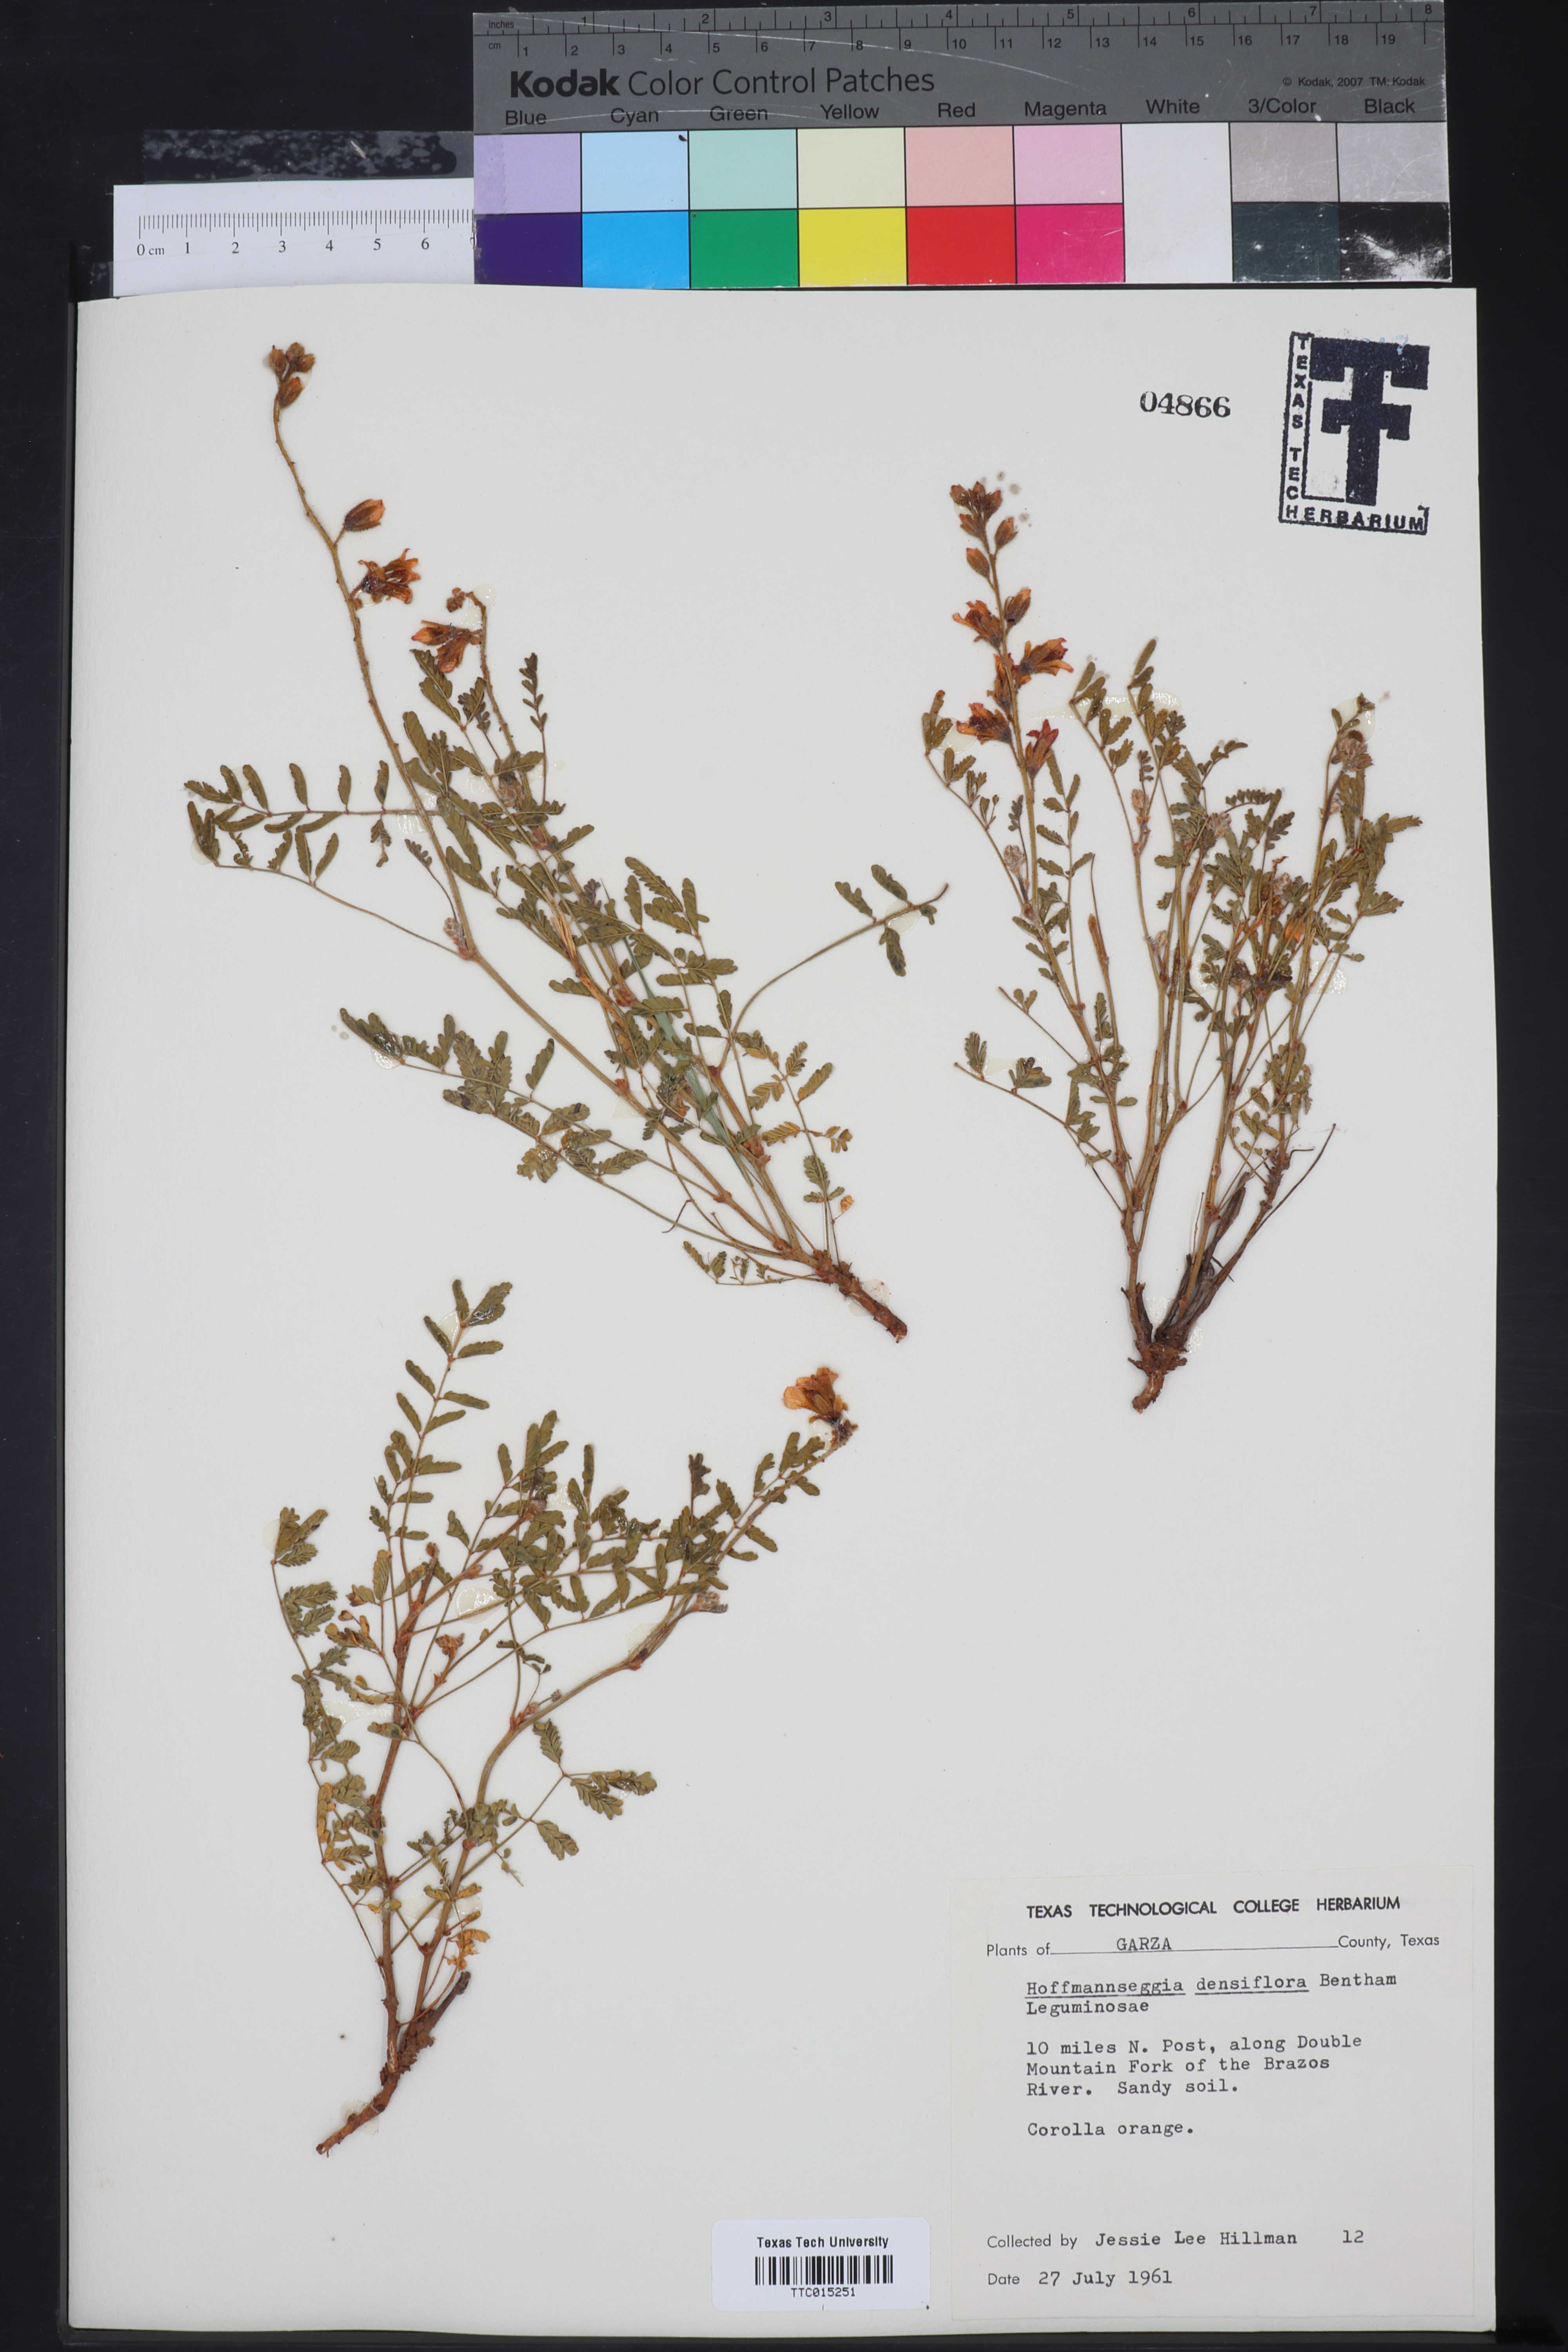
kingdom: Plantae
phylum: Tracheophyta
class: Magnoliopsida
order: Fabales
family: Fabaceae
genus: Hoffmannseggia
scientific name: Hoffmannseggia glauca
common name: Pignut
